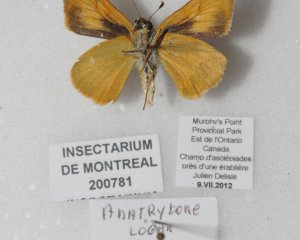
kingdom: Animalia
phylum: Arthropoda
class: Insecta
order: Lepidoptera
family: Hesperiidae
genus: Atrytone
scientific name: Atrytone delaware
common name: Delaware Skipper
